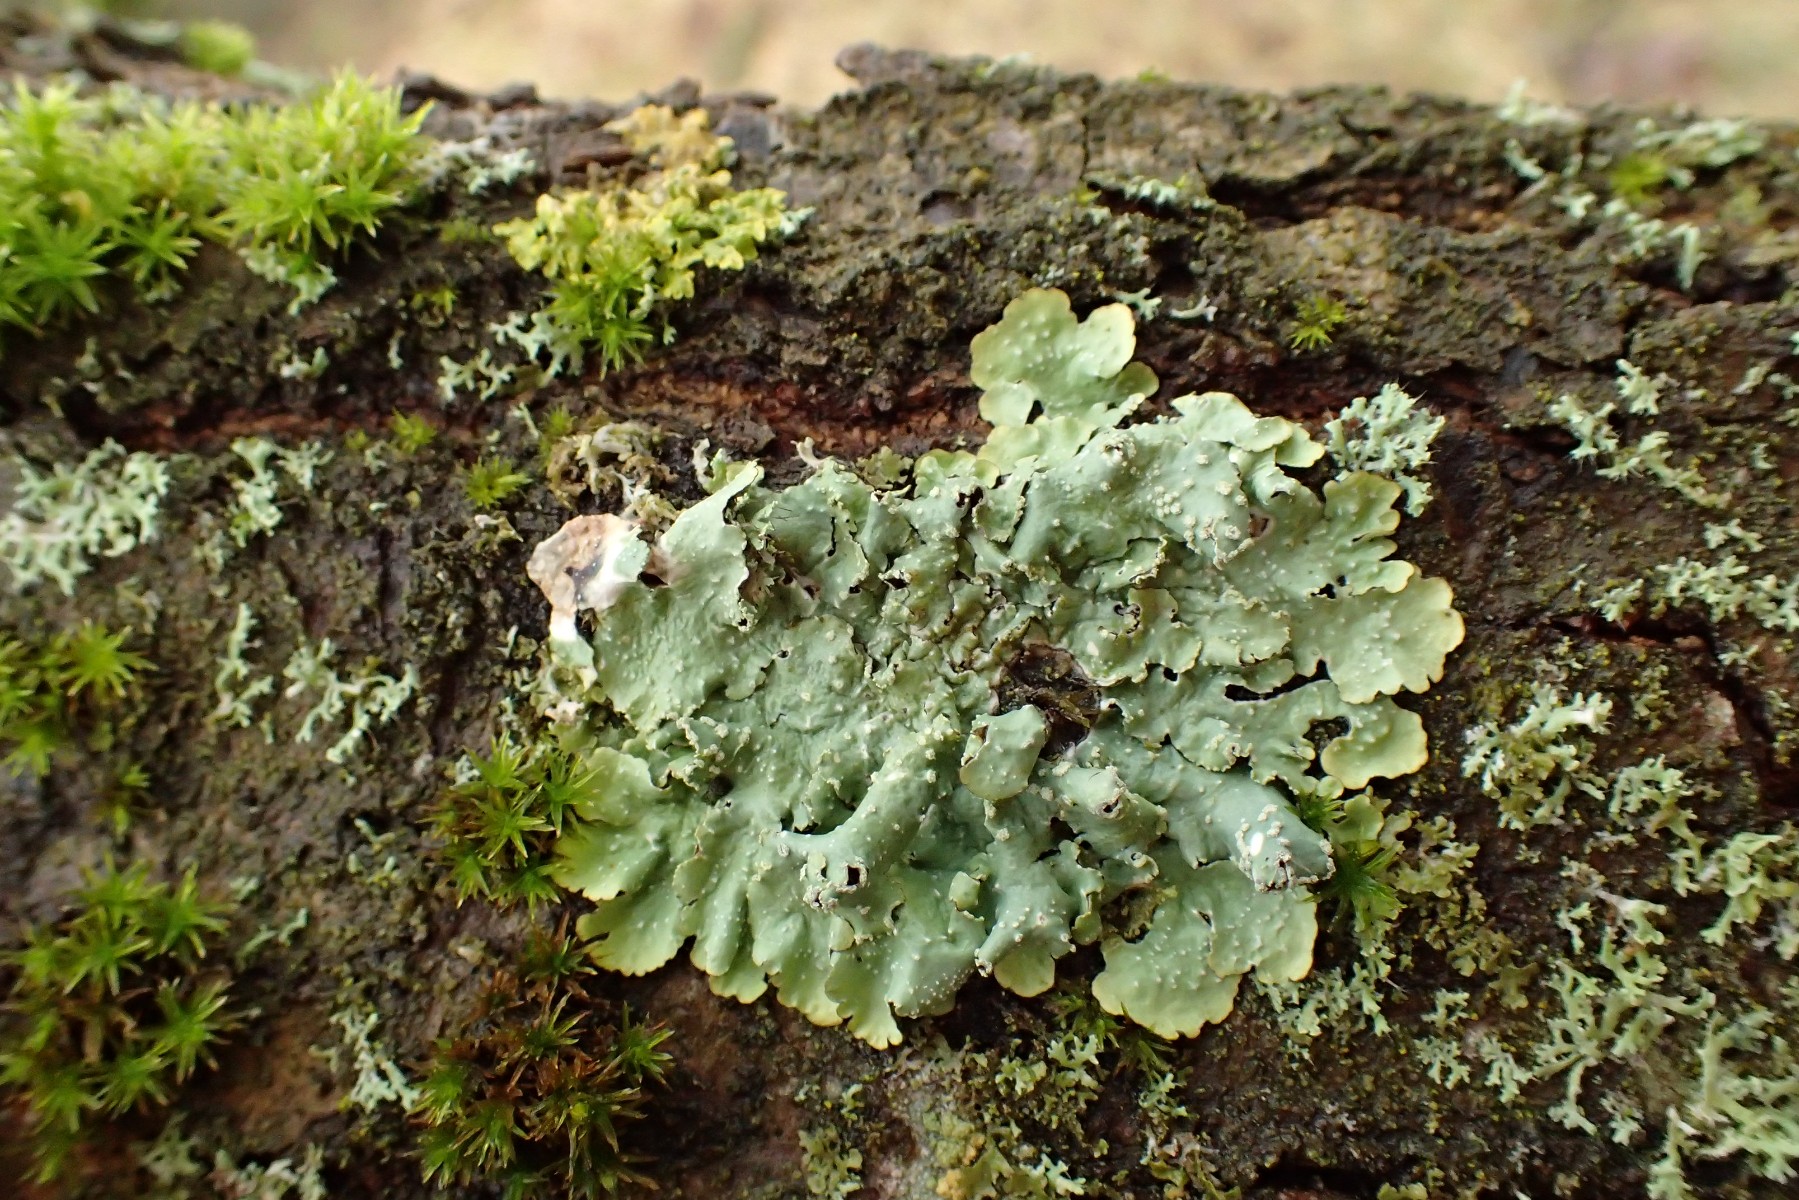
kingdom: Fungi
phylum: Ascomycota
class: Lecanoromycetes
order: Lecanorales
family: Parmeliaceae
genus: Punctelia
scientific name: Punctelia subrudecta
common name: punkt-skållav
